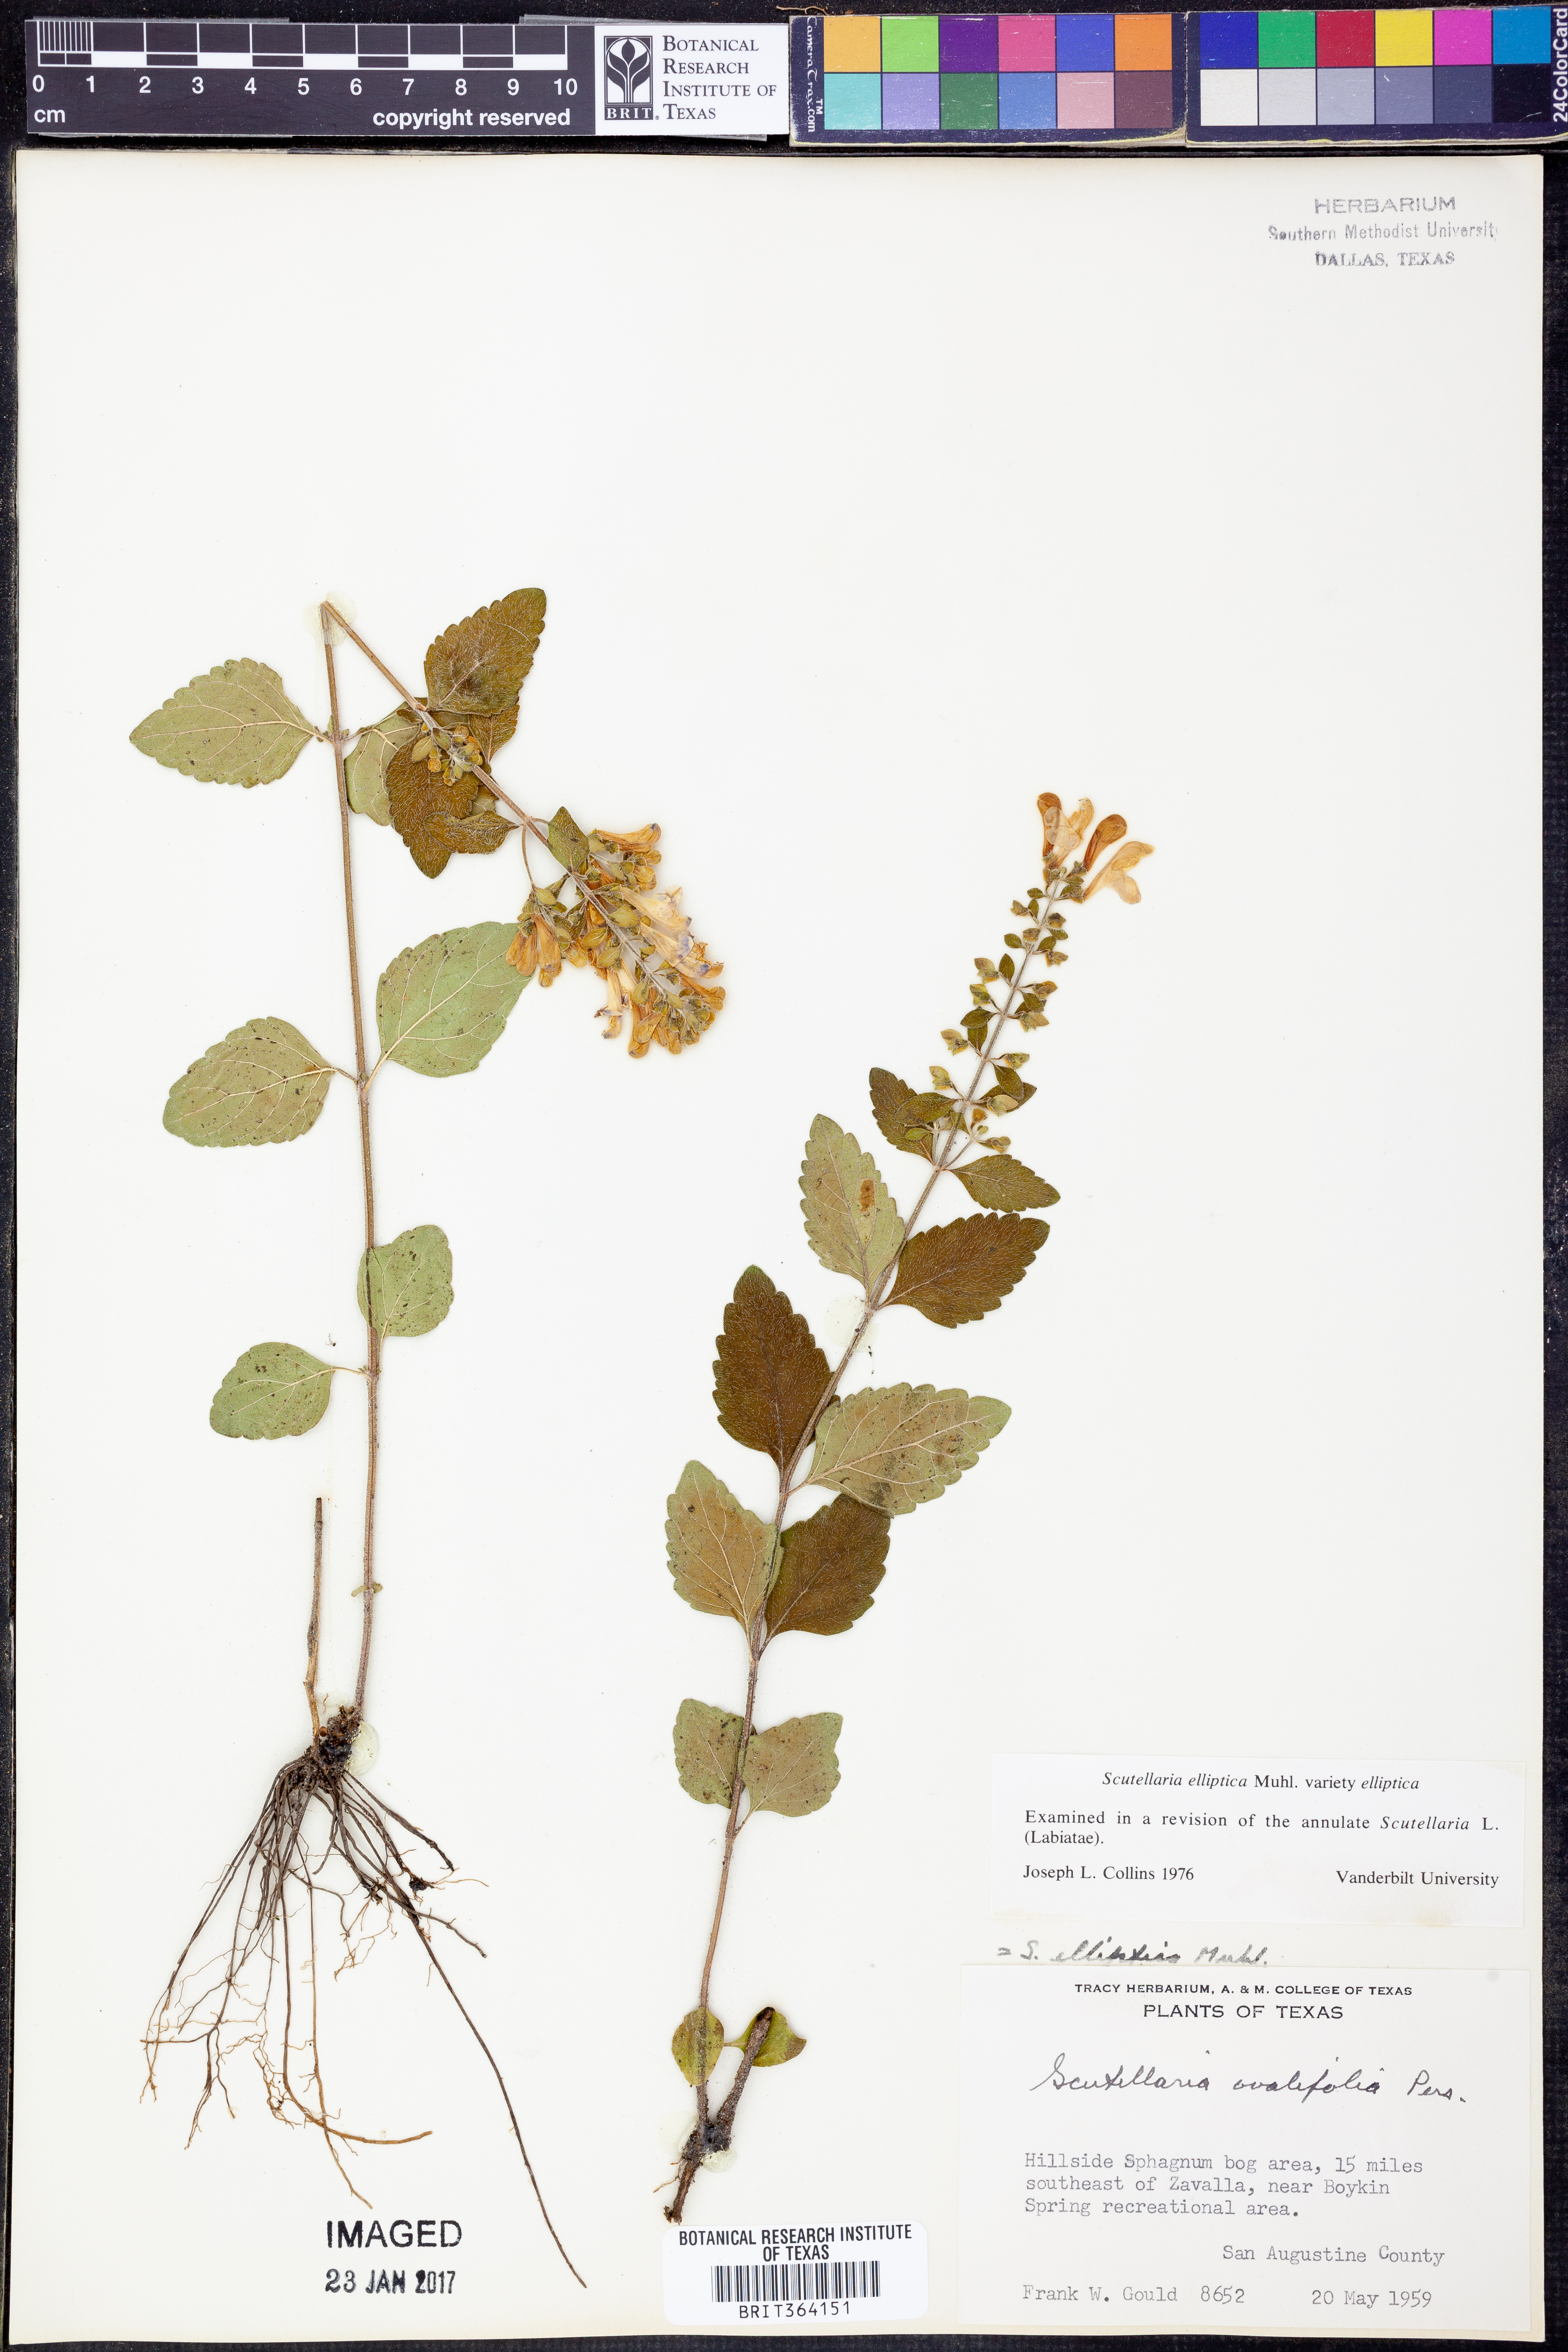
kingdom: Plantae
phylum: Tracheophyta
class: Magnoliopsida
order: Lamiales
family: Lamiaceae
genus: Scutellaria
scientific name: Scutellaria elliptica
